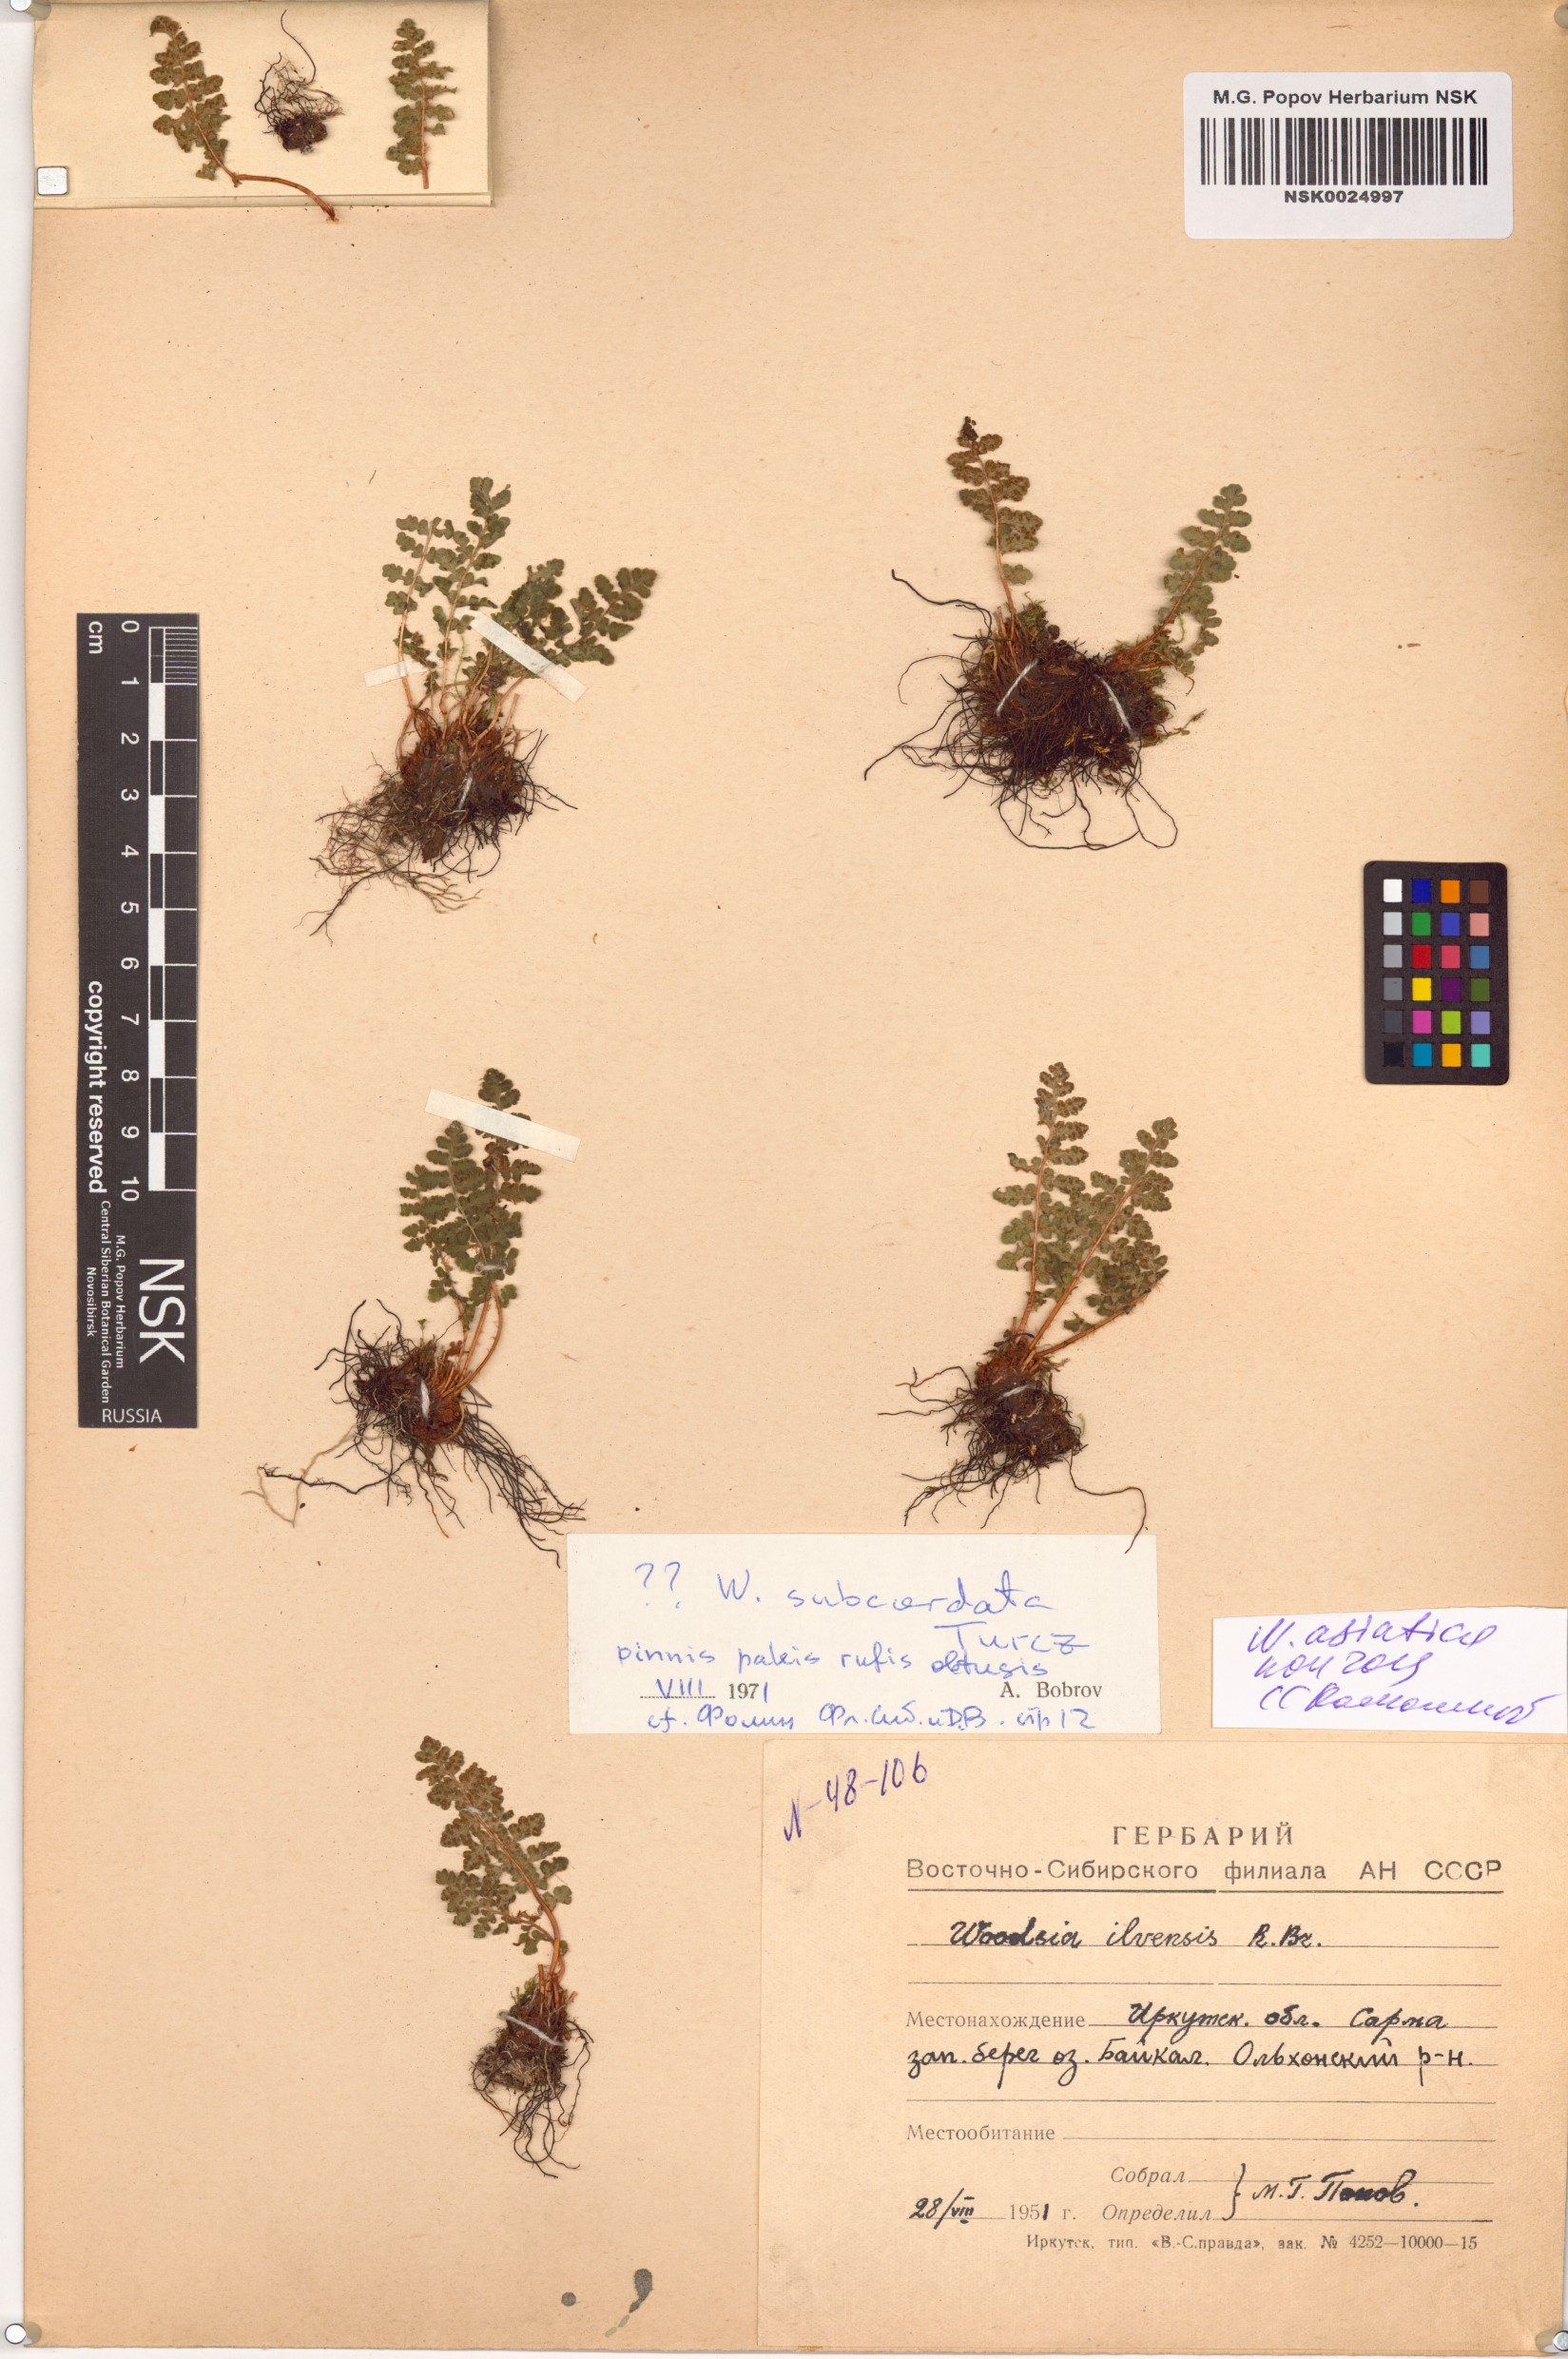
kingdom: Plantae
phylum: Tracheophyta
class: Polypodiopsida
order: Polypodiales
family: Woodsiaceae
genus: Woodsia
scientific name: Woodsia asiatica
